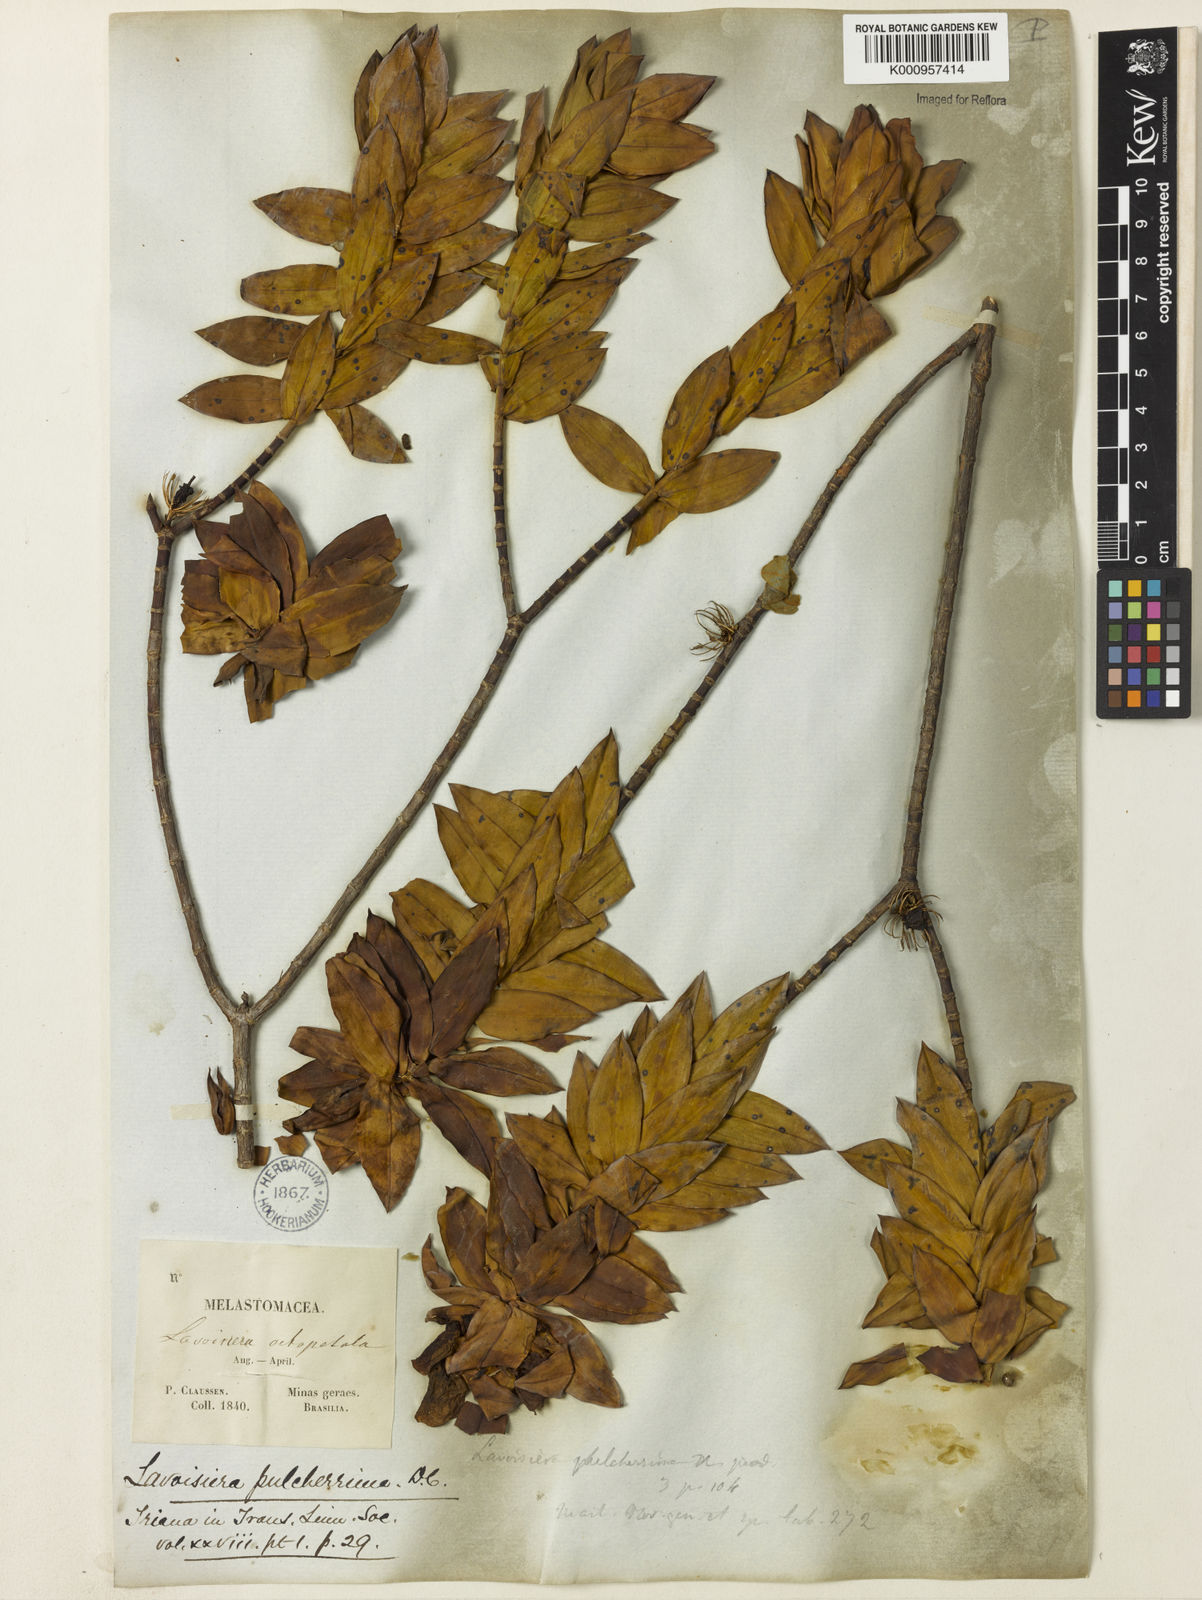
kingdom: Plantae
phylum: Tracheophyta
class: Magnoliopsida
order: Myrtales
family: Melastomataceae
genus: Microlicia
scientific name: Microlicia pulcherrima
